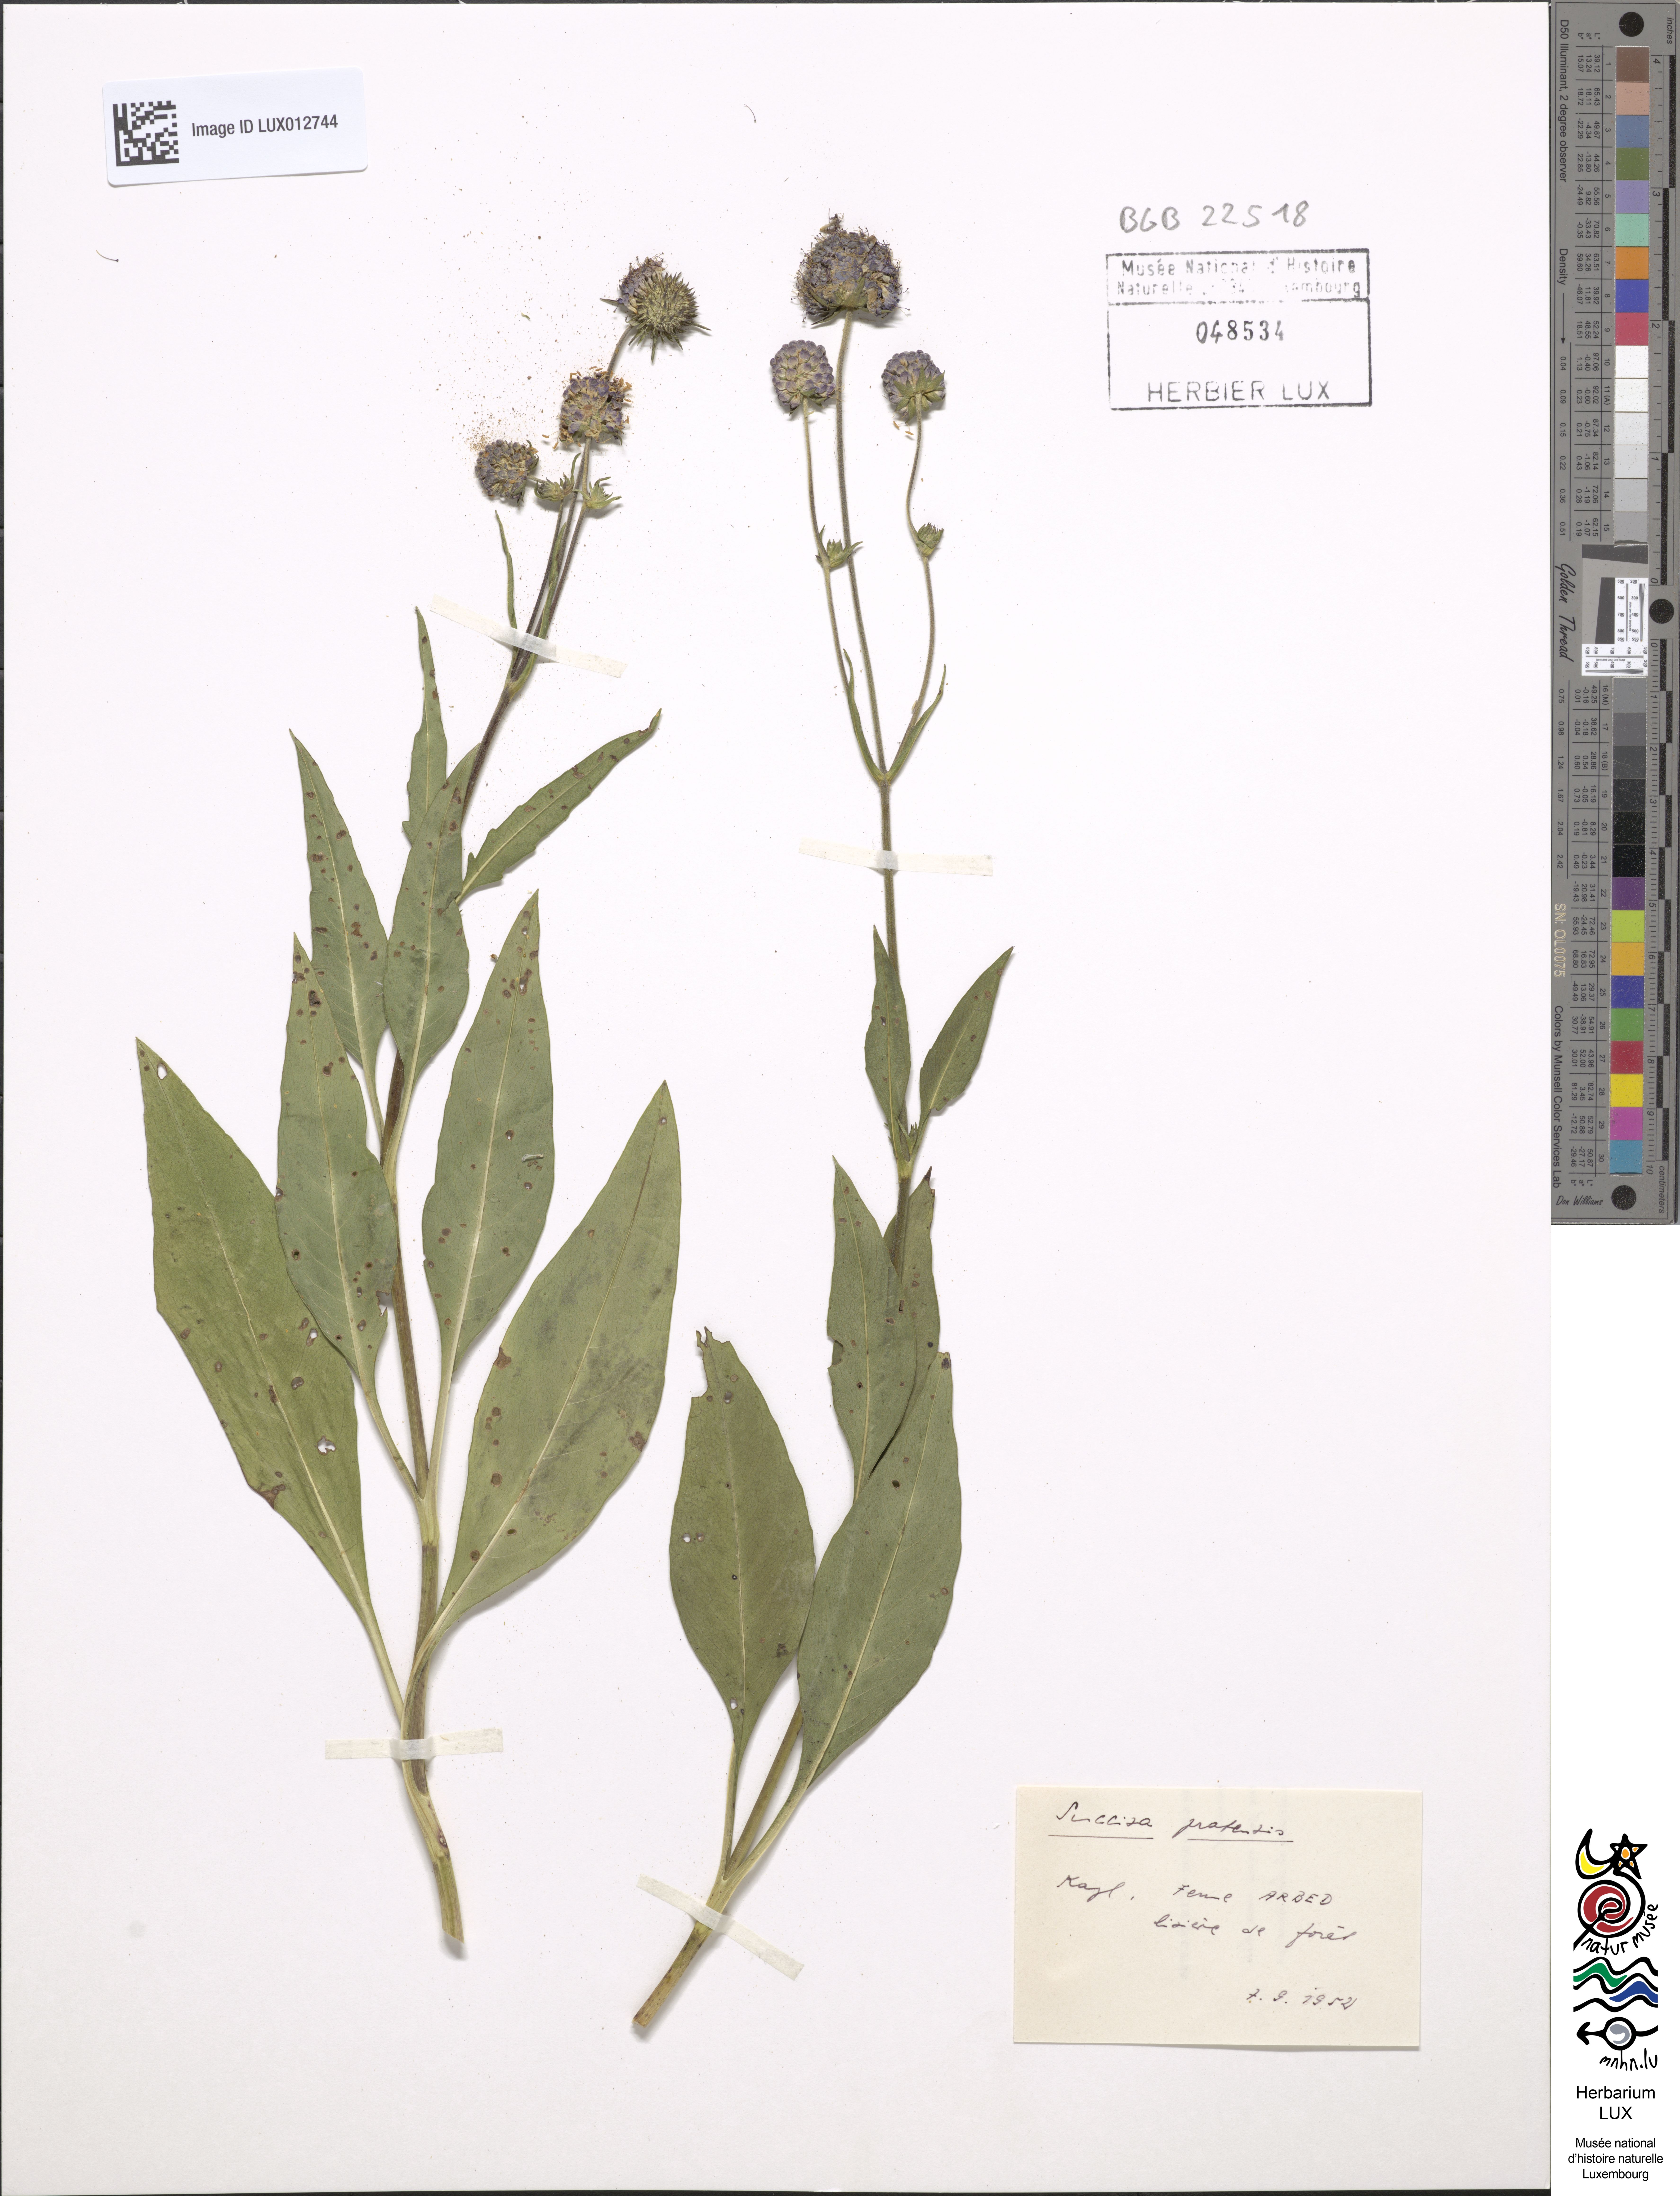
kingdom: Plantae
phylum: Tracheophyta
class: Magnoliopsida
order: Dipsacales
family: Caprifoliaceae
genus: Succisa
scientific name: Succisa pratensis
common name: Devil's-bit
